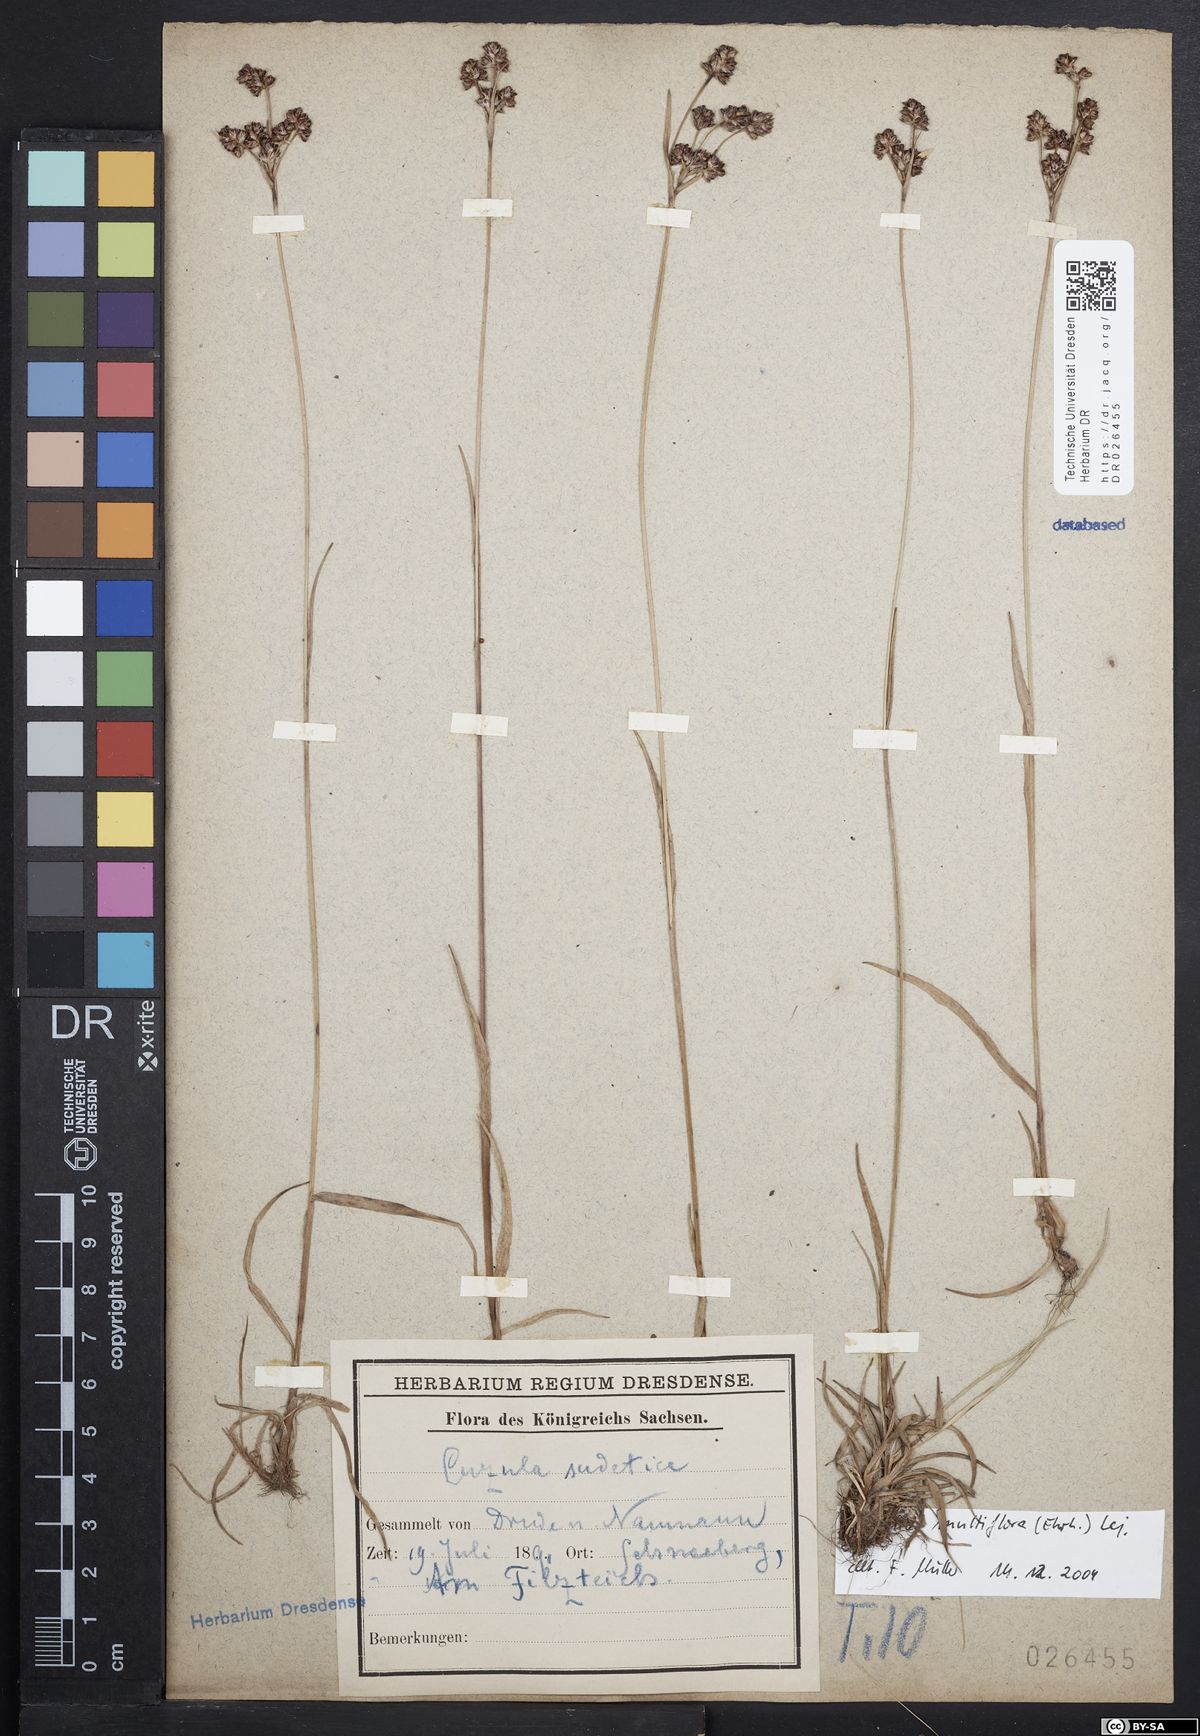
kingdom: Plantae
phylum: Tracheophyta
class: Liliopsida
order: Poales
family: Juncaceae
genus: Luzula
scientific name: Luzula multiflora
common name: Heath wood-rush
